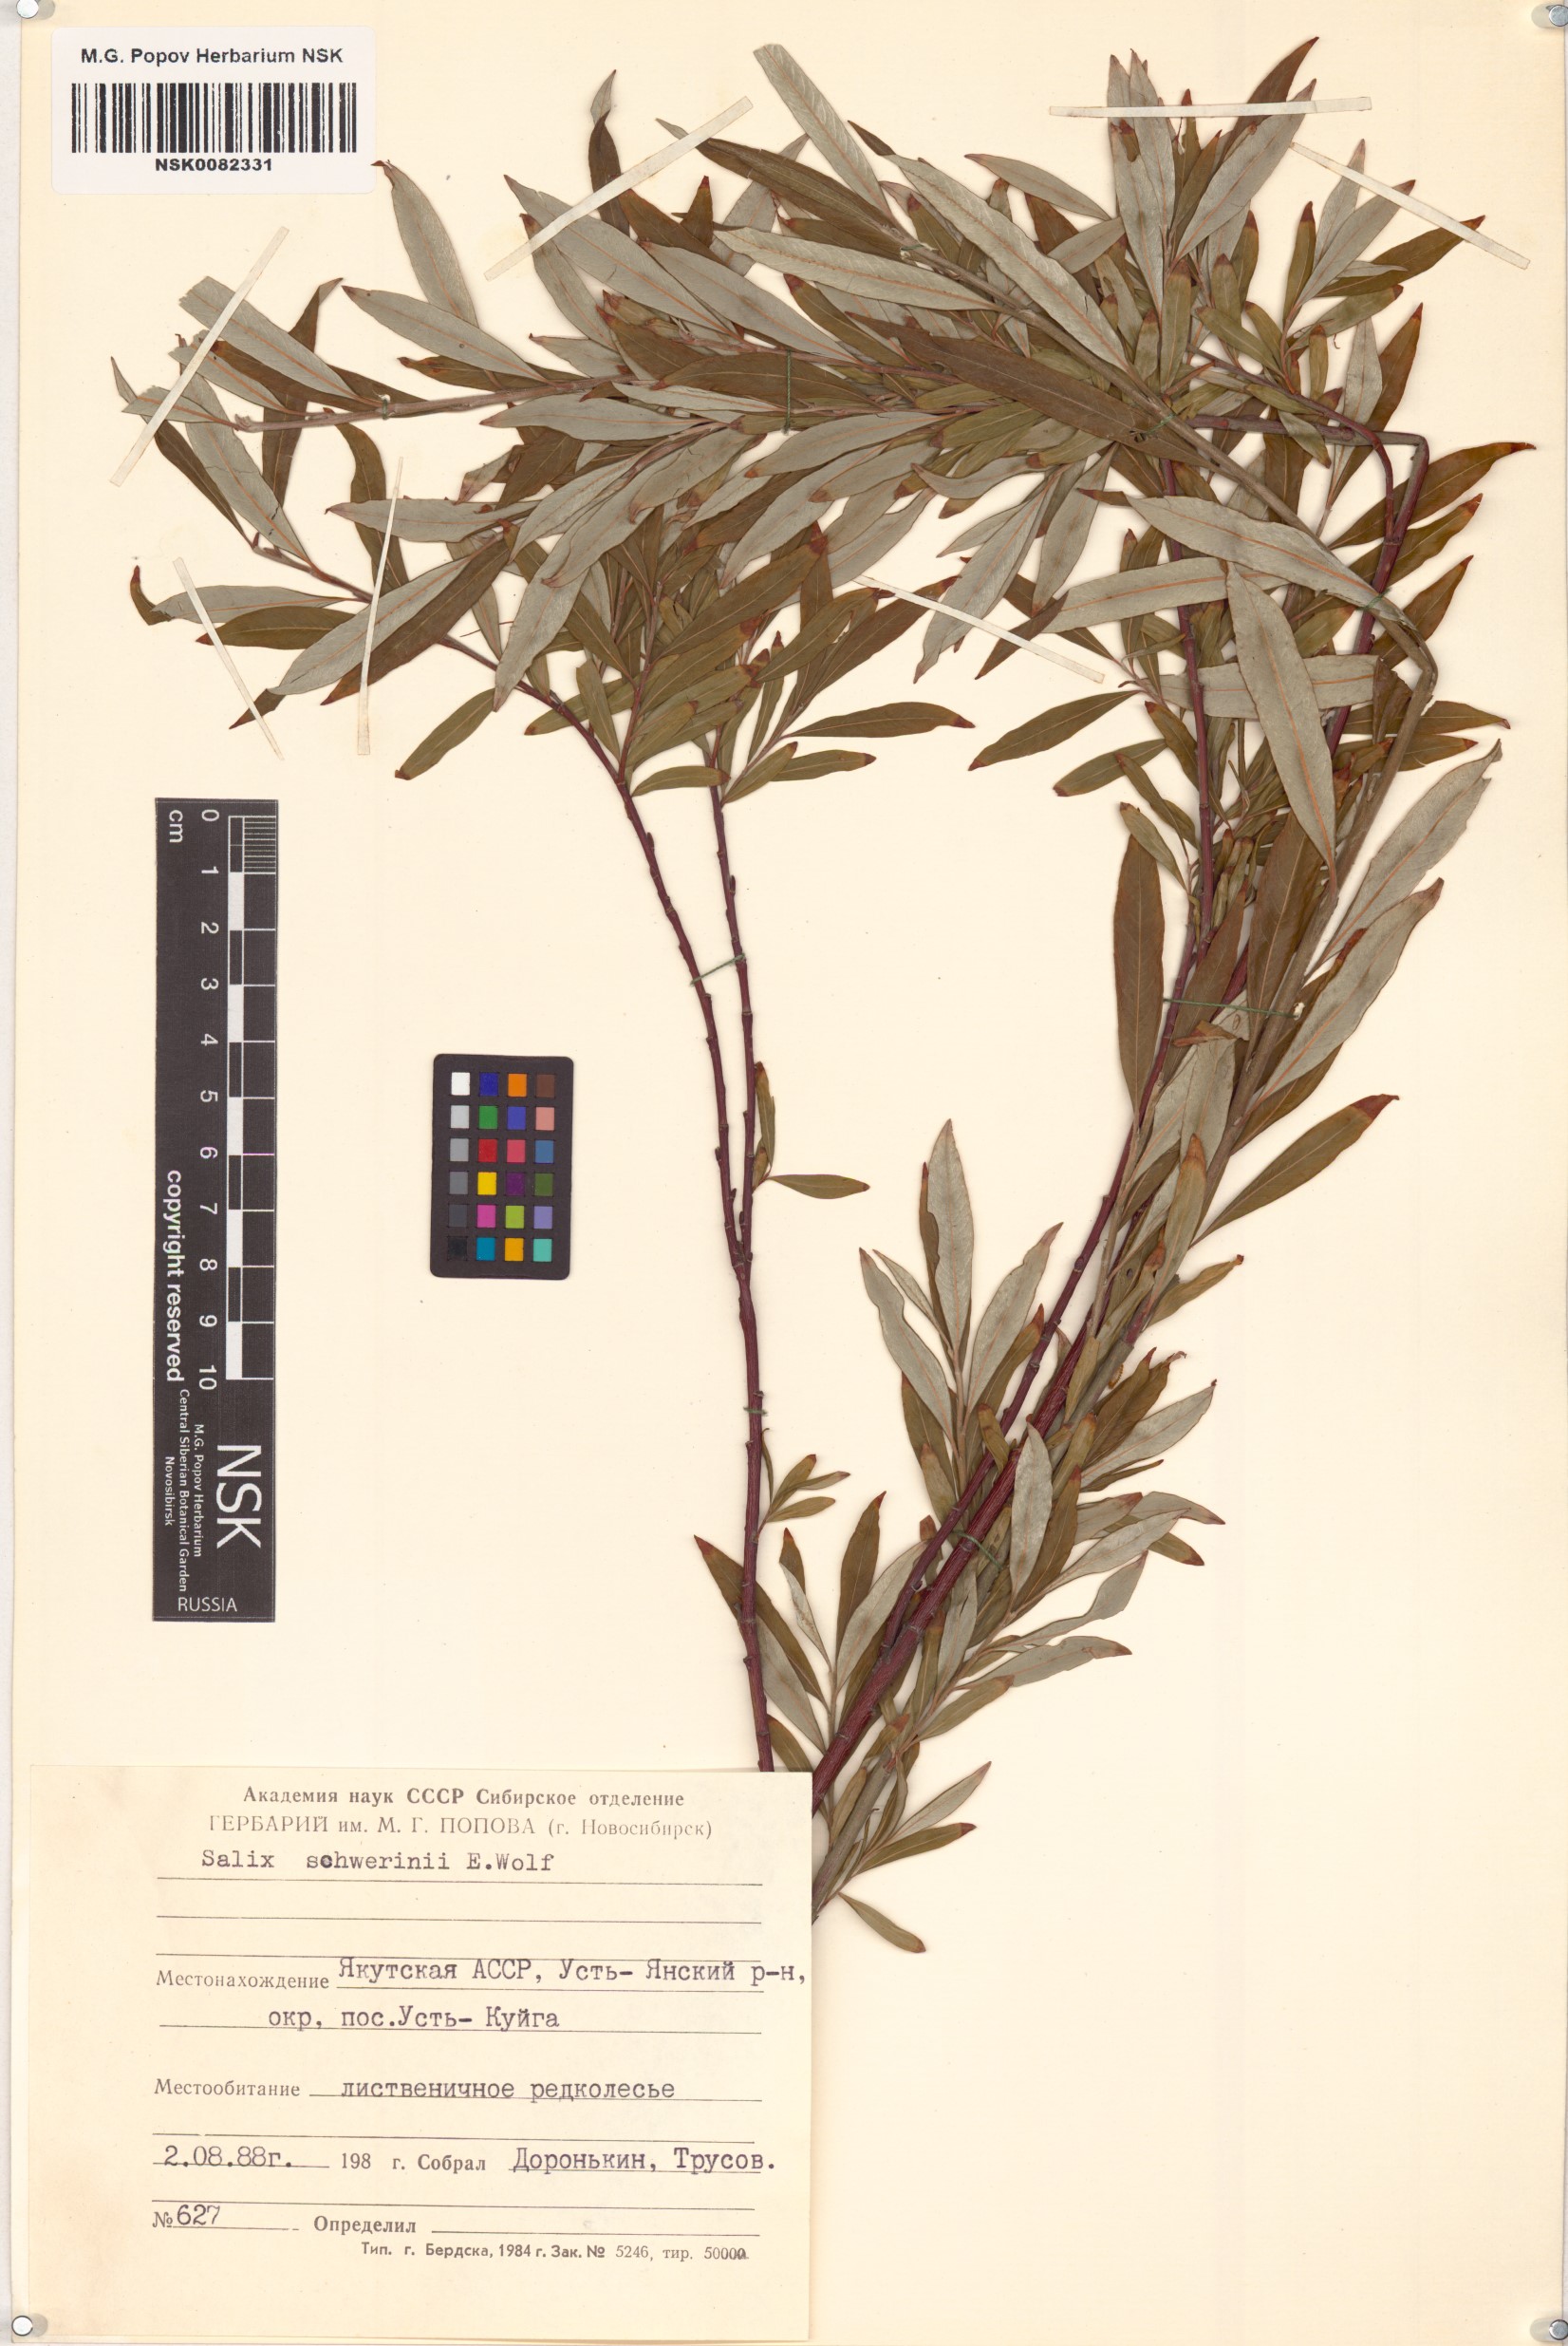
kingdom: Plantae
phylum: Tracheophyta
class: Magnoliopsida
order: Malpighiales
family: Salicaceae
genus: Salix
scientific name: Salix schwerinii
